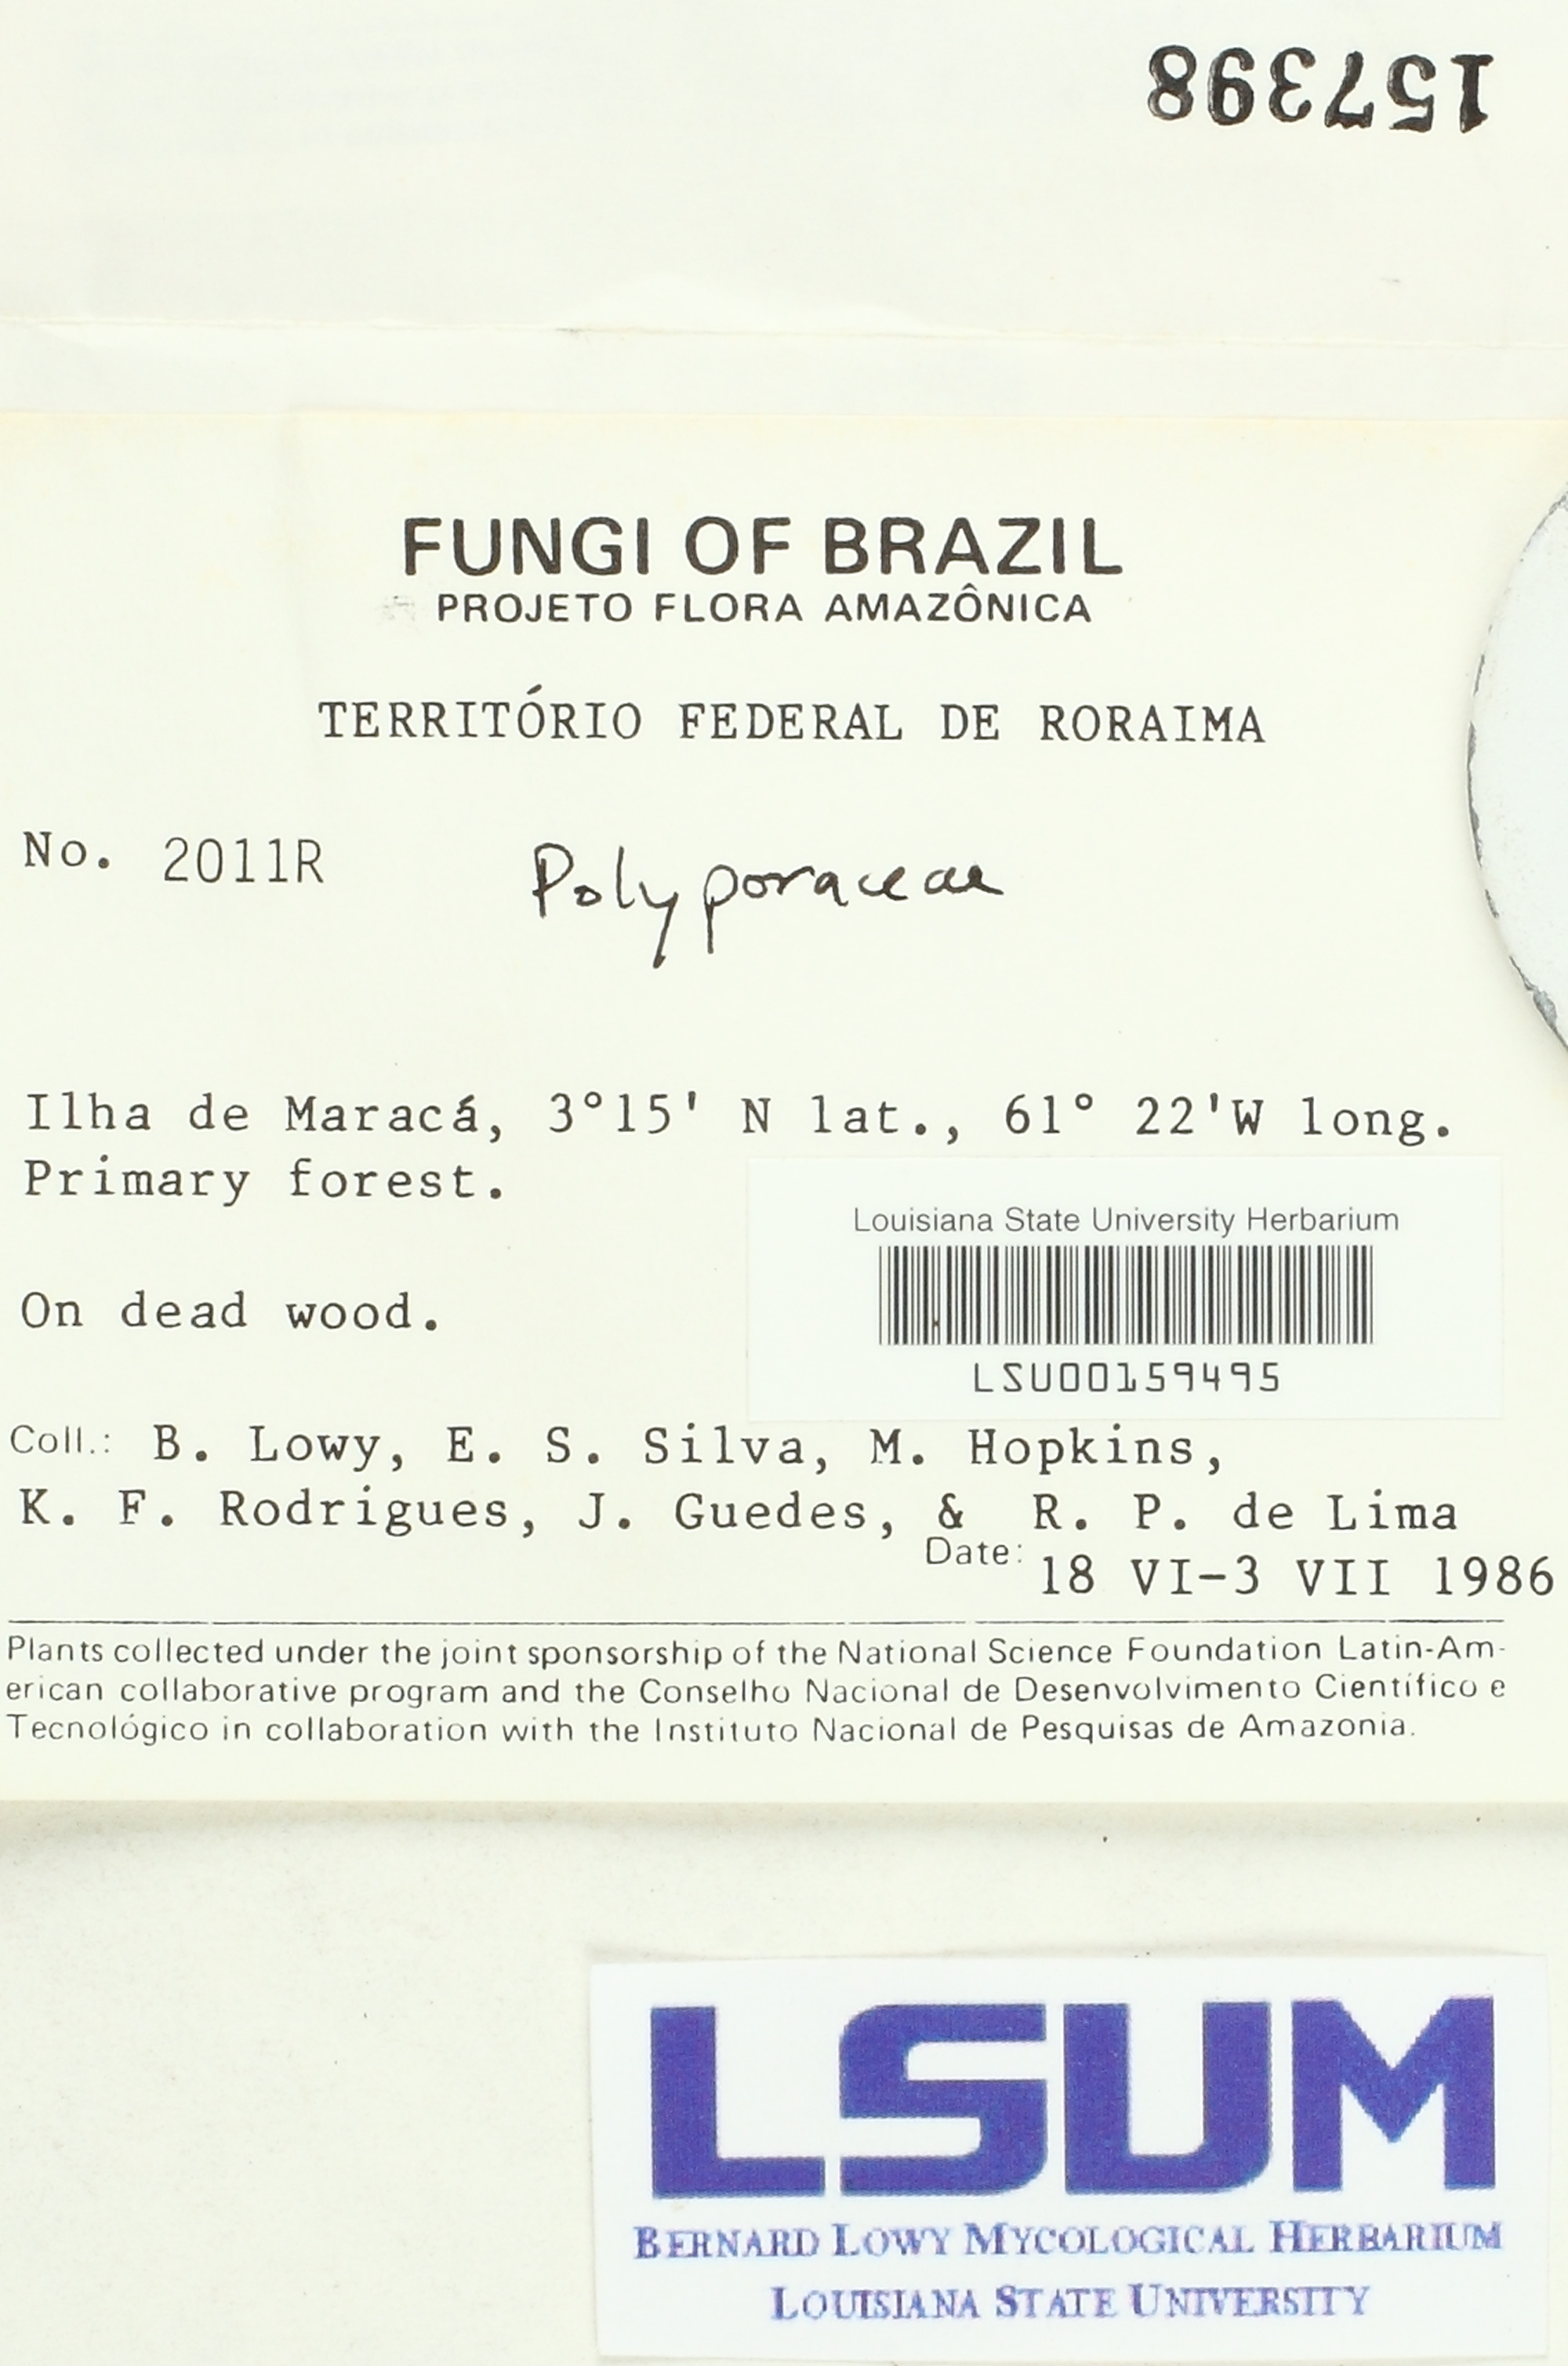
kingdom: Fungi
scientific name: Fungi
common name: Fungi
